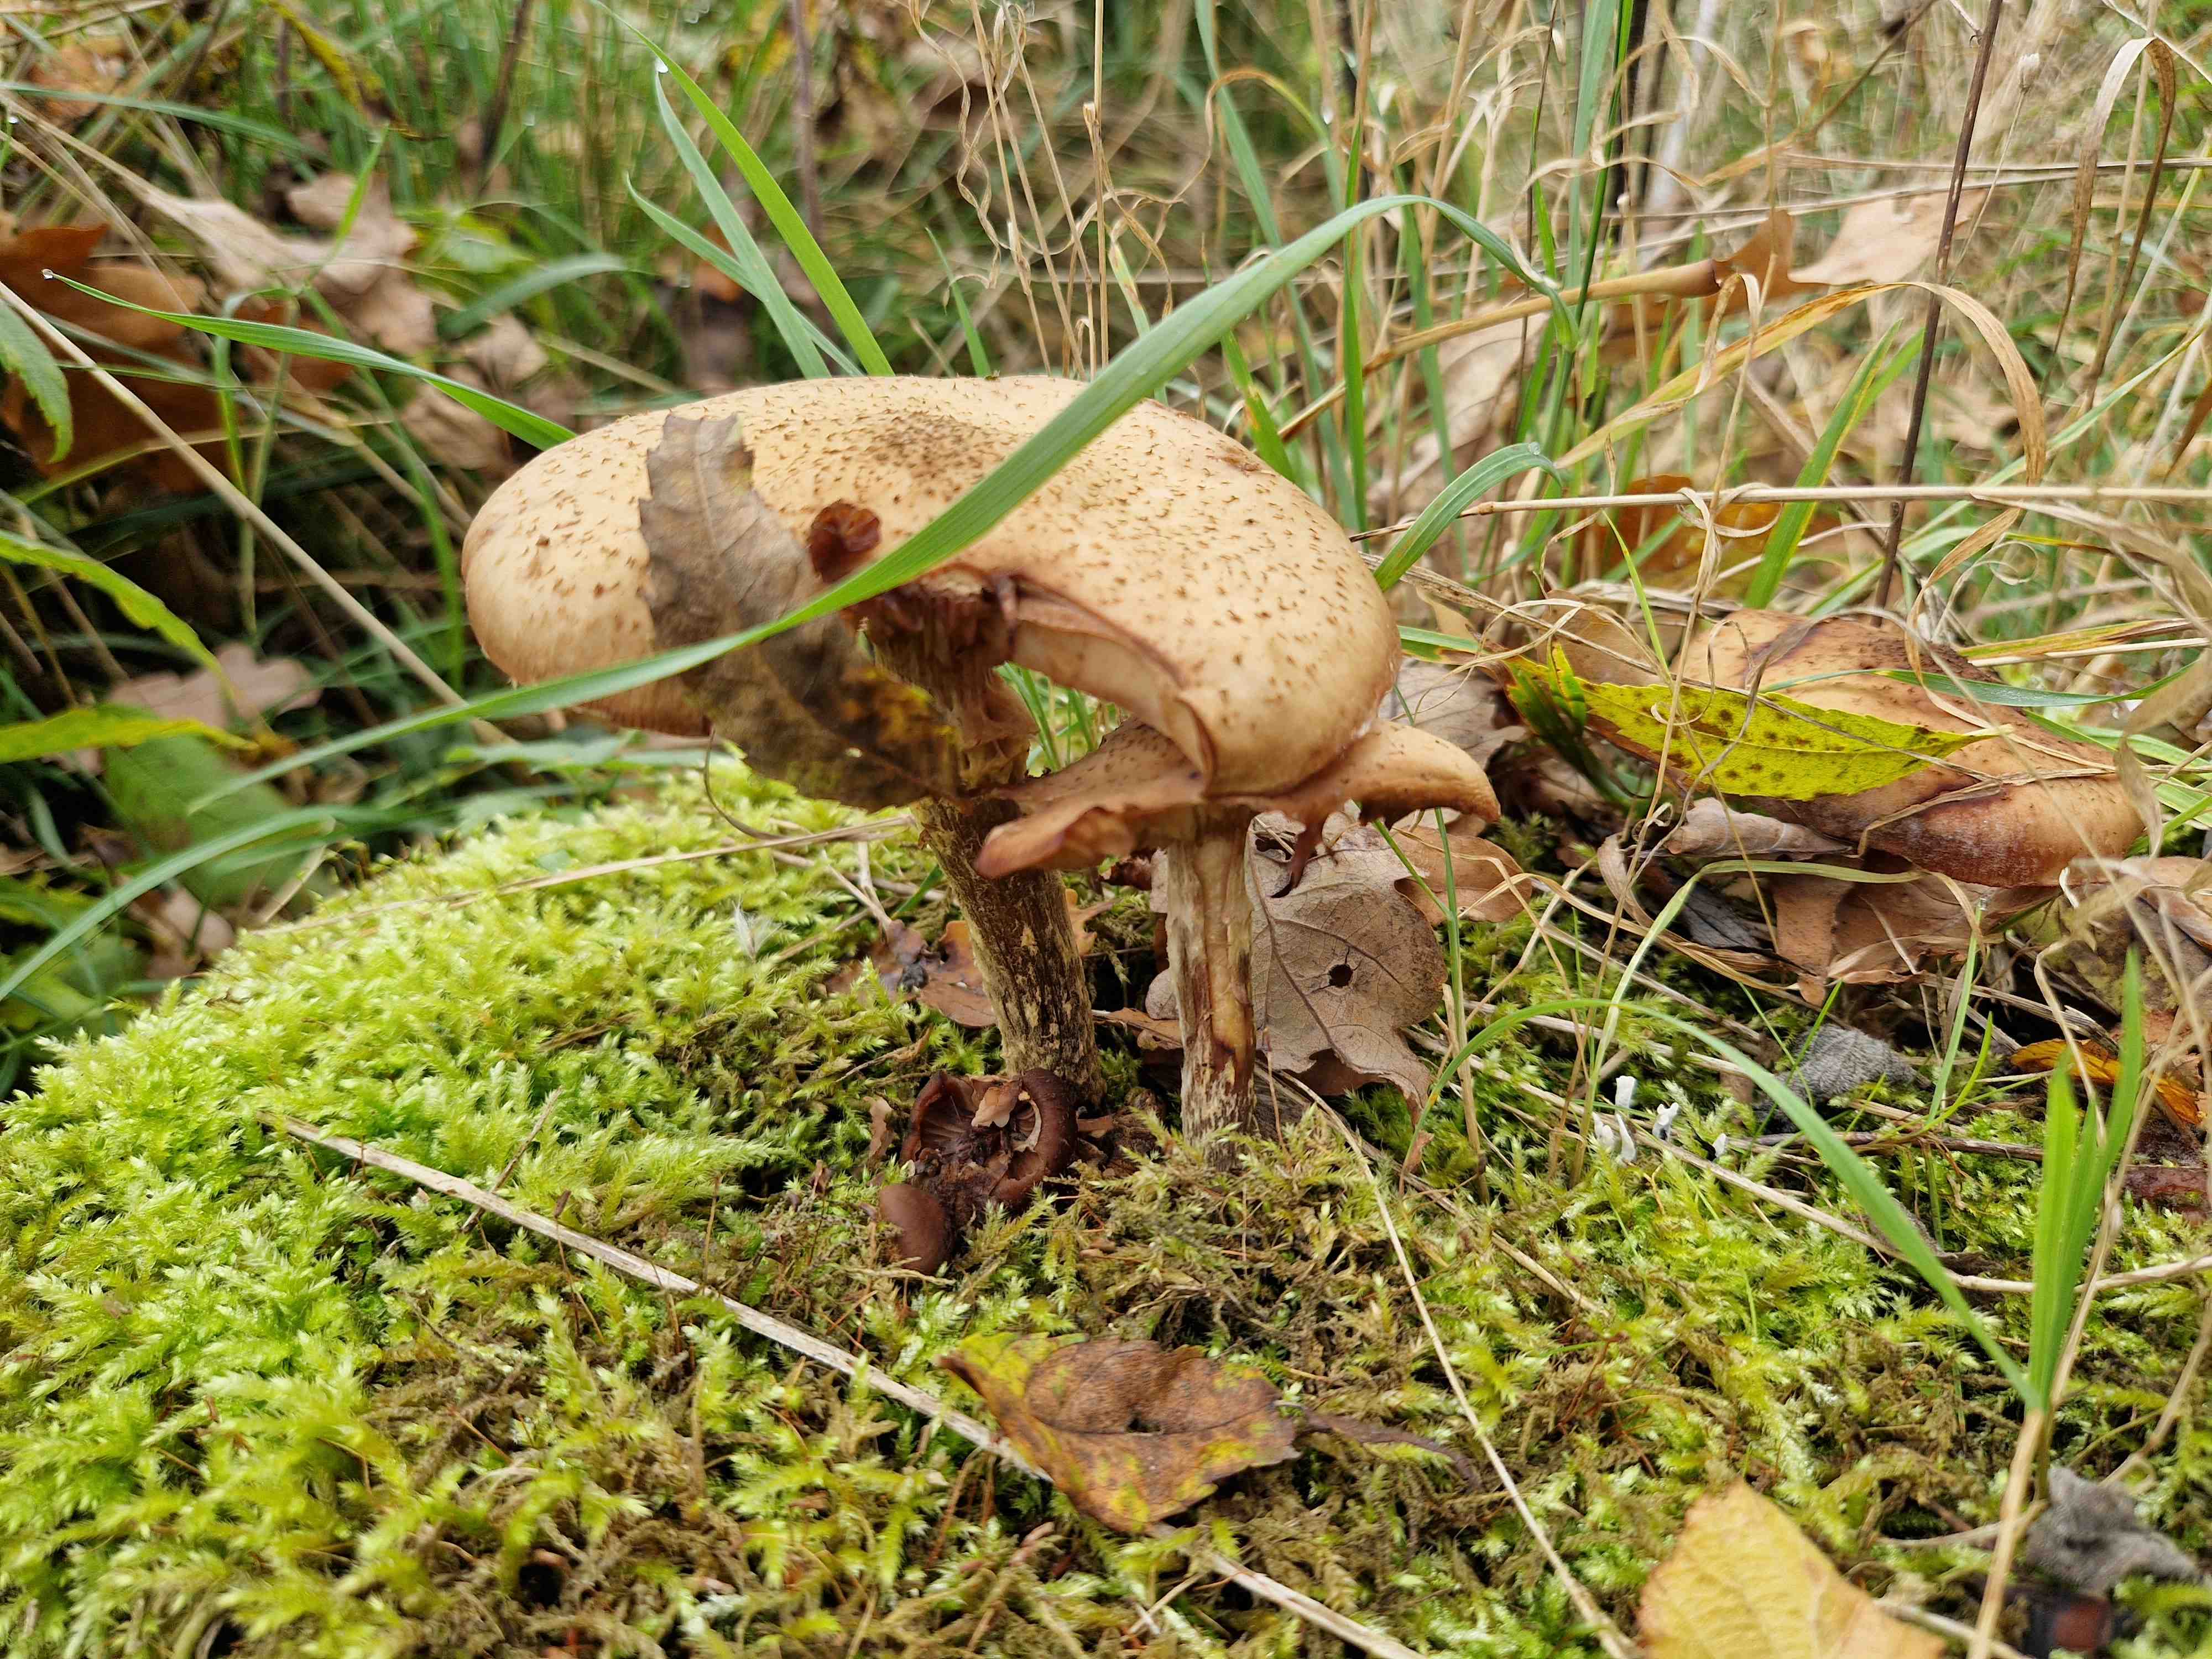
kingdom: Fungi
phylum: Basidiomycota
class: Agaricomycetes
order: Agaricales
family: Physalacriaceae
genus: Armillaria
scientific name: Armillaria
